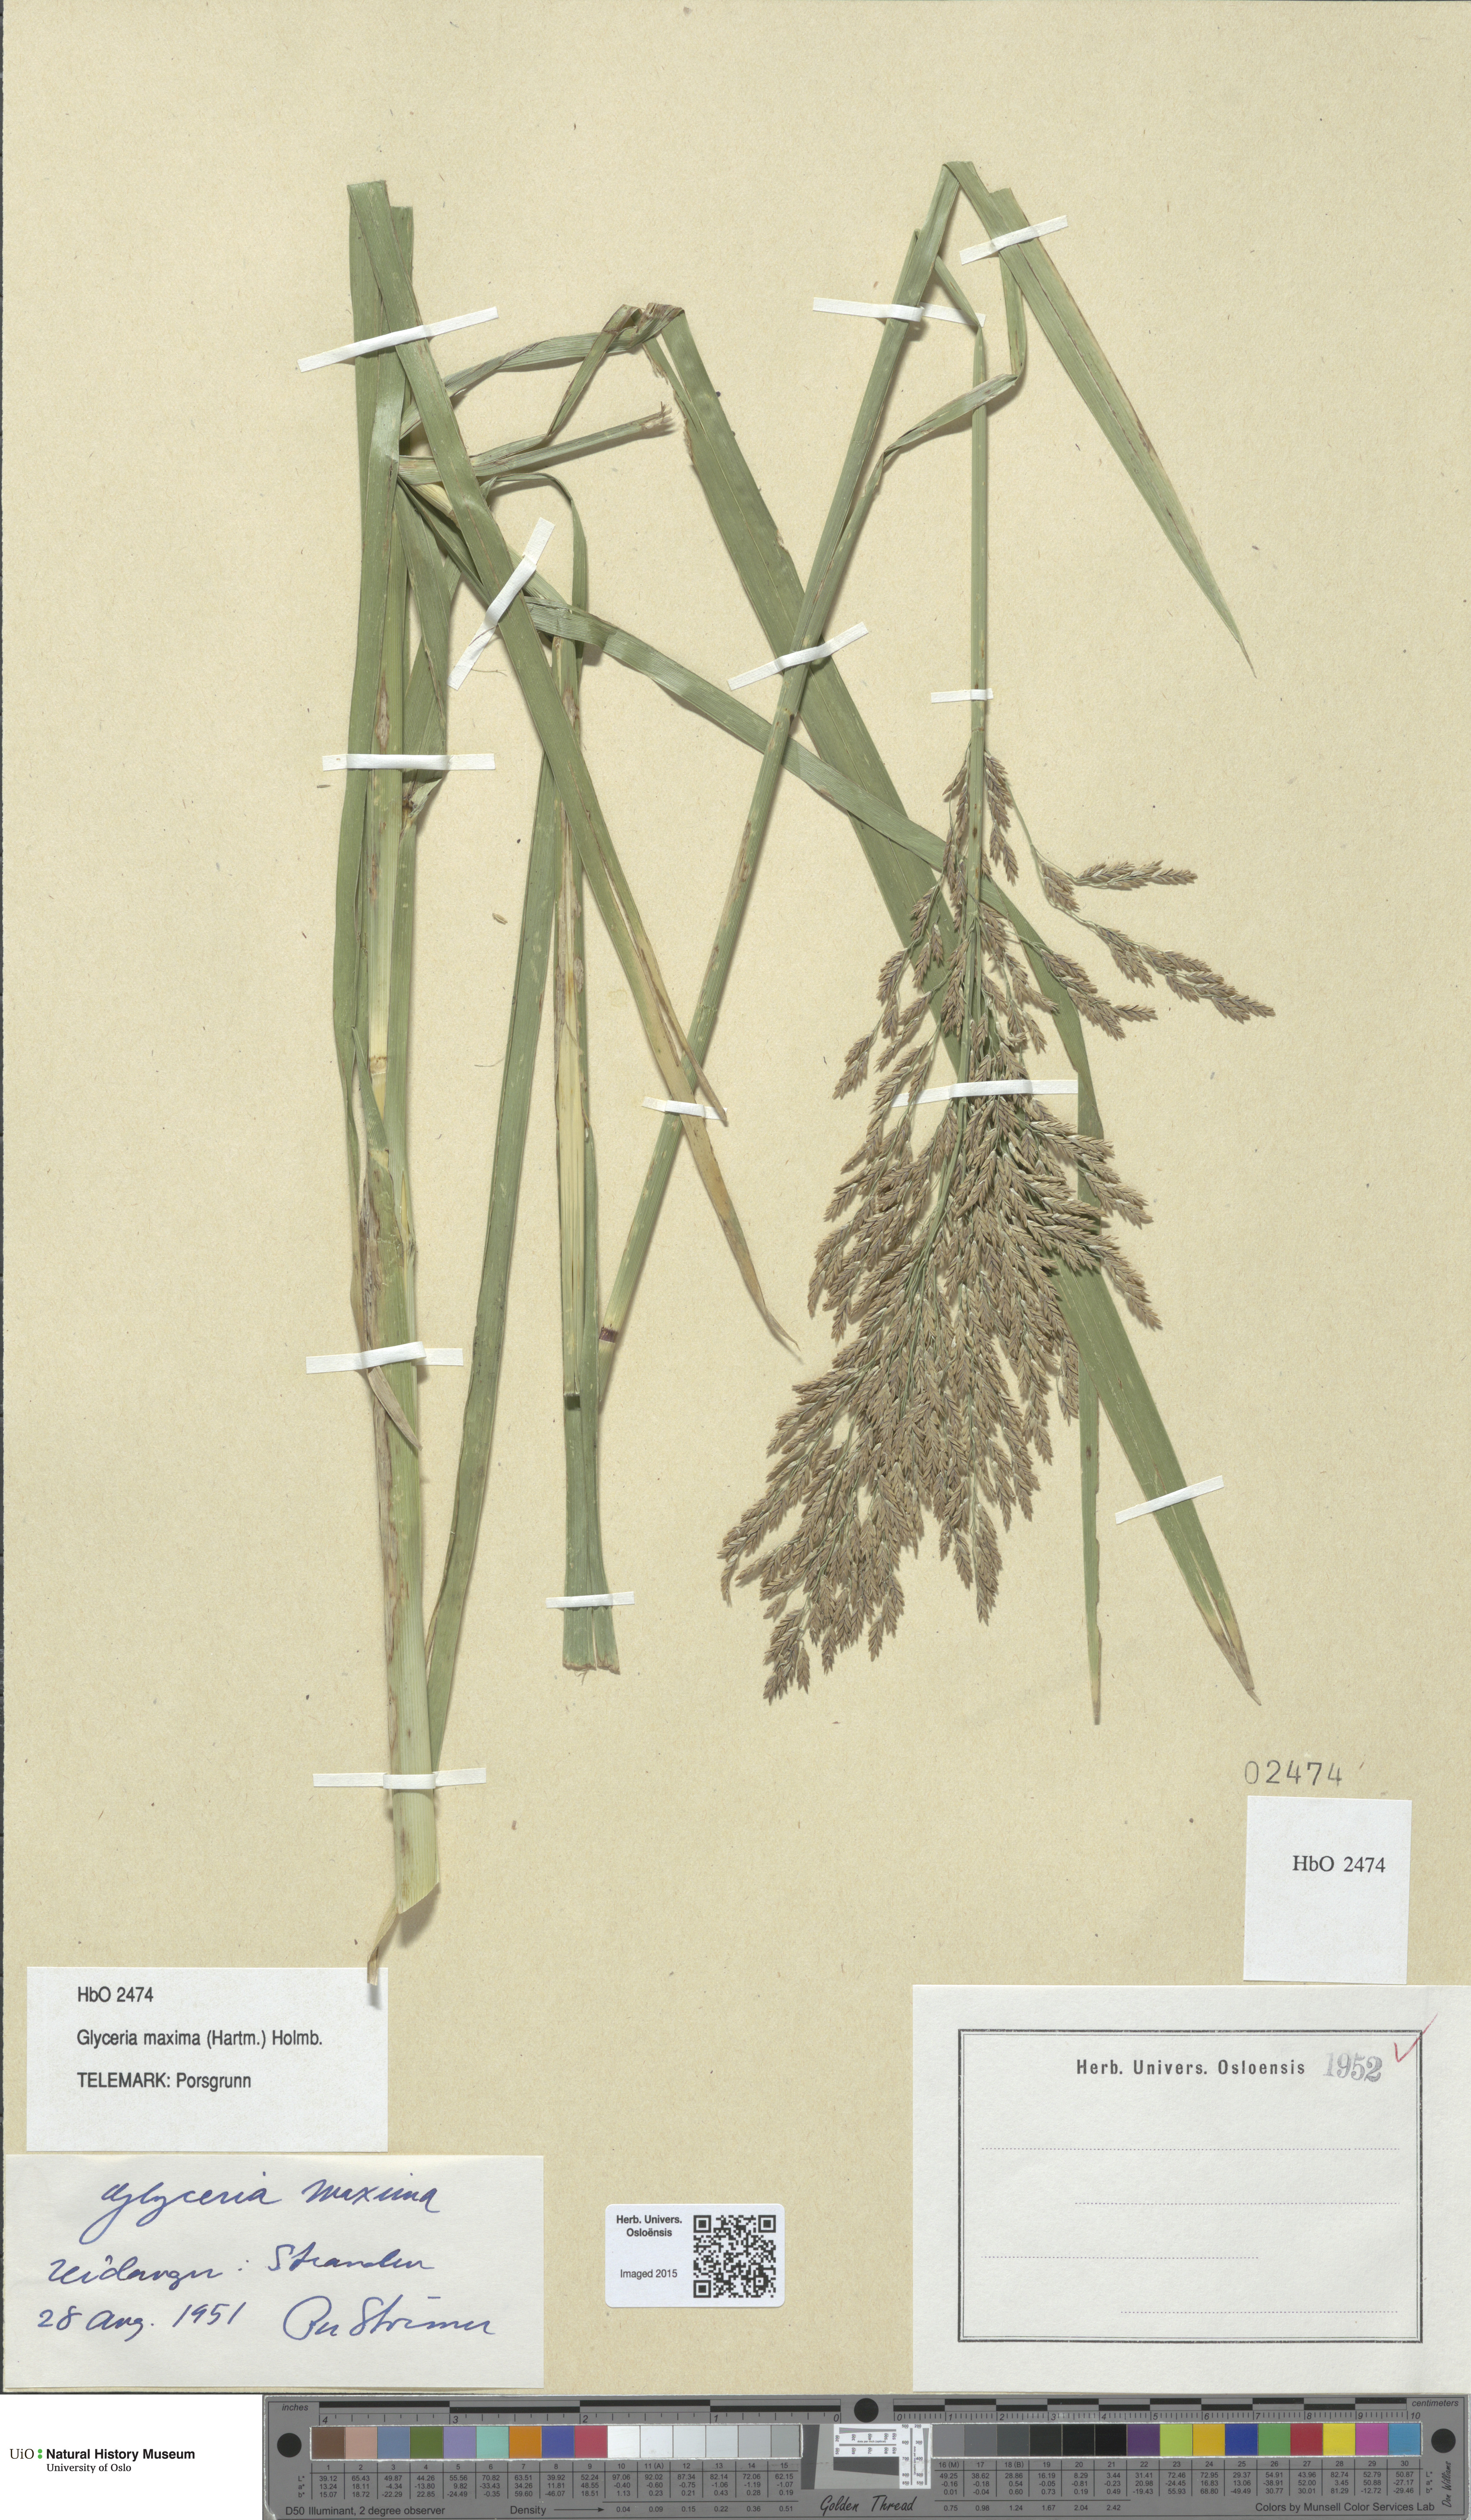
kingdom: Plantae
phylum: Tracheophyta
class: Liliopsida
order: Poales
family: Poaceae
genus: Glyceria
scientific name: Glyceria maxima
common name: Reed mannagrass
